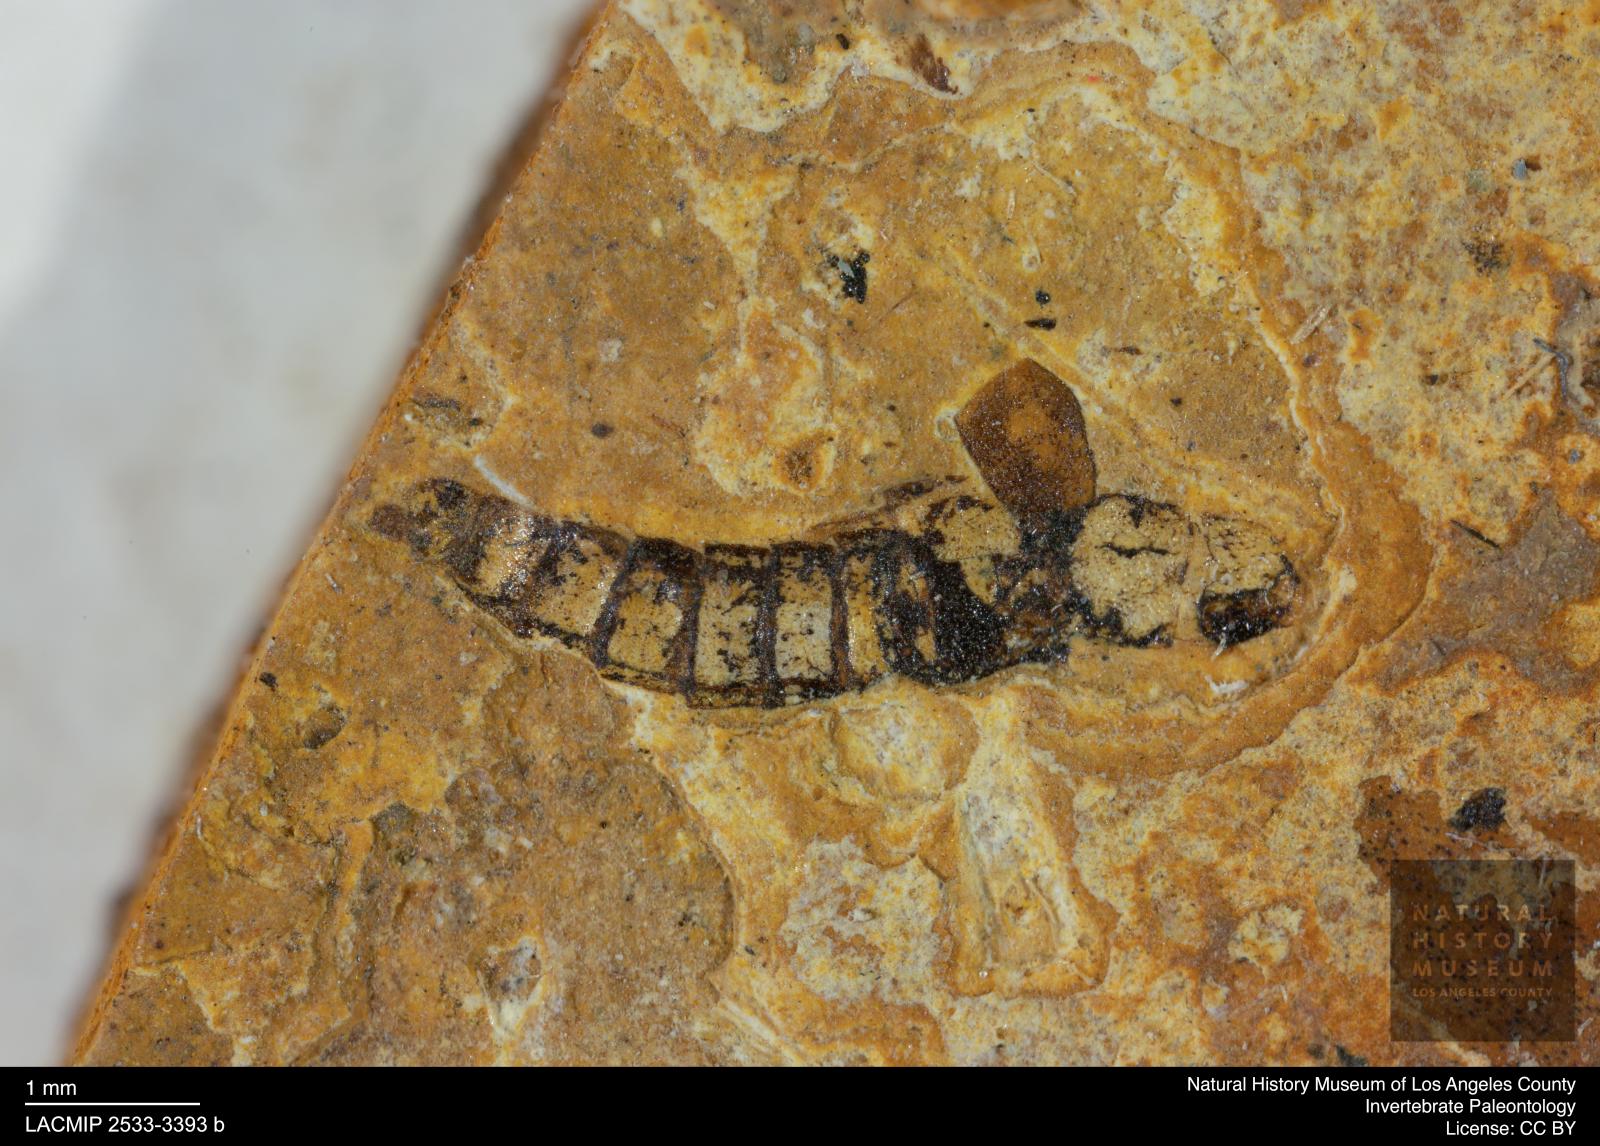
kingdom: Animalia
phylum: Arthropoda
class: Insecta
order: Coleoptera
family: Staphylinidae
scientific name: Staphylinidae
